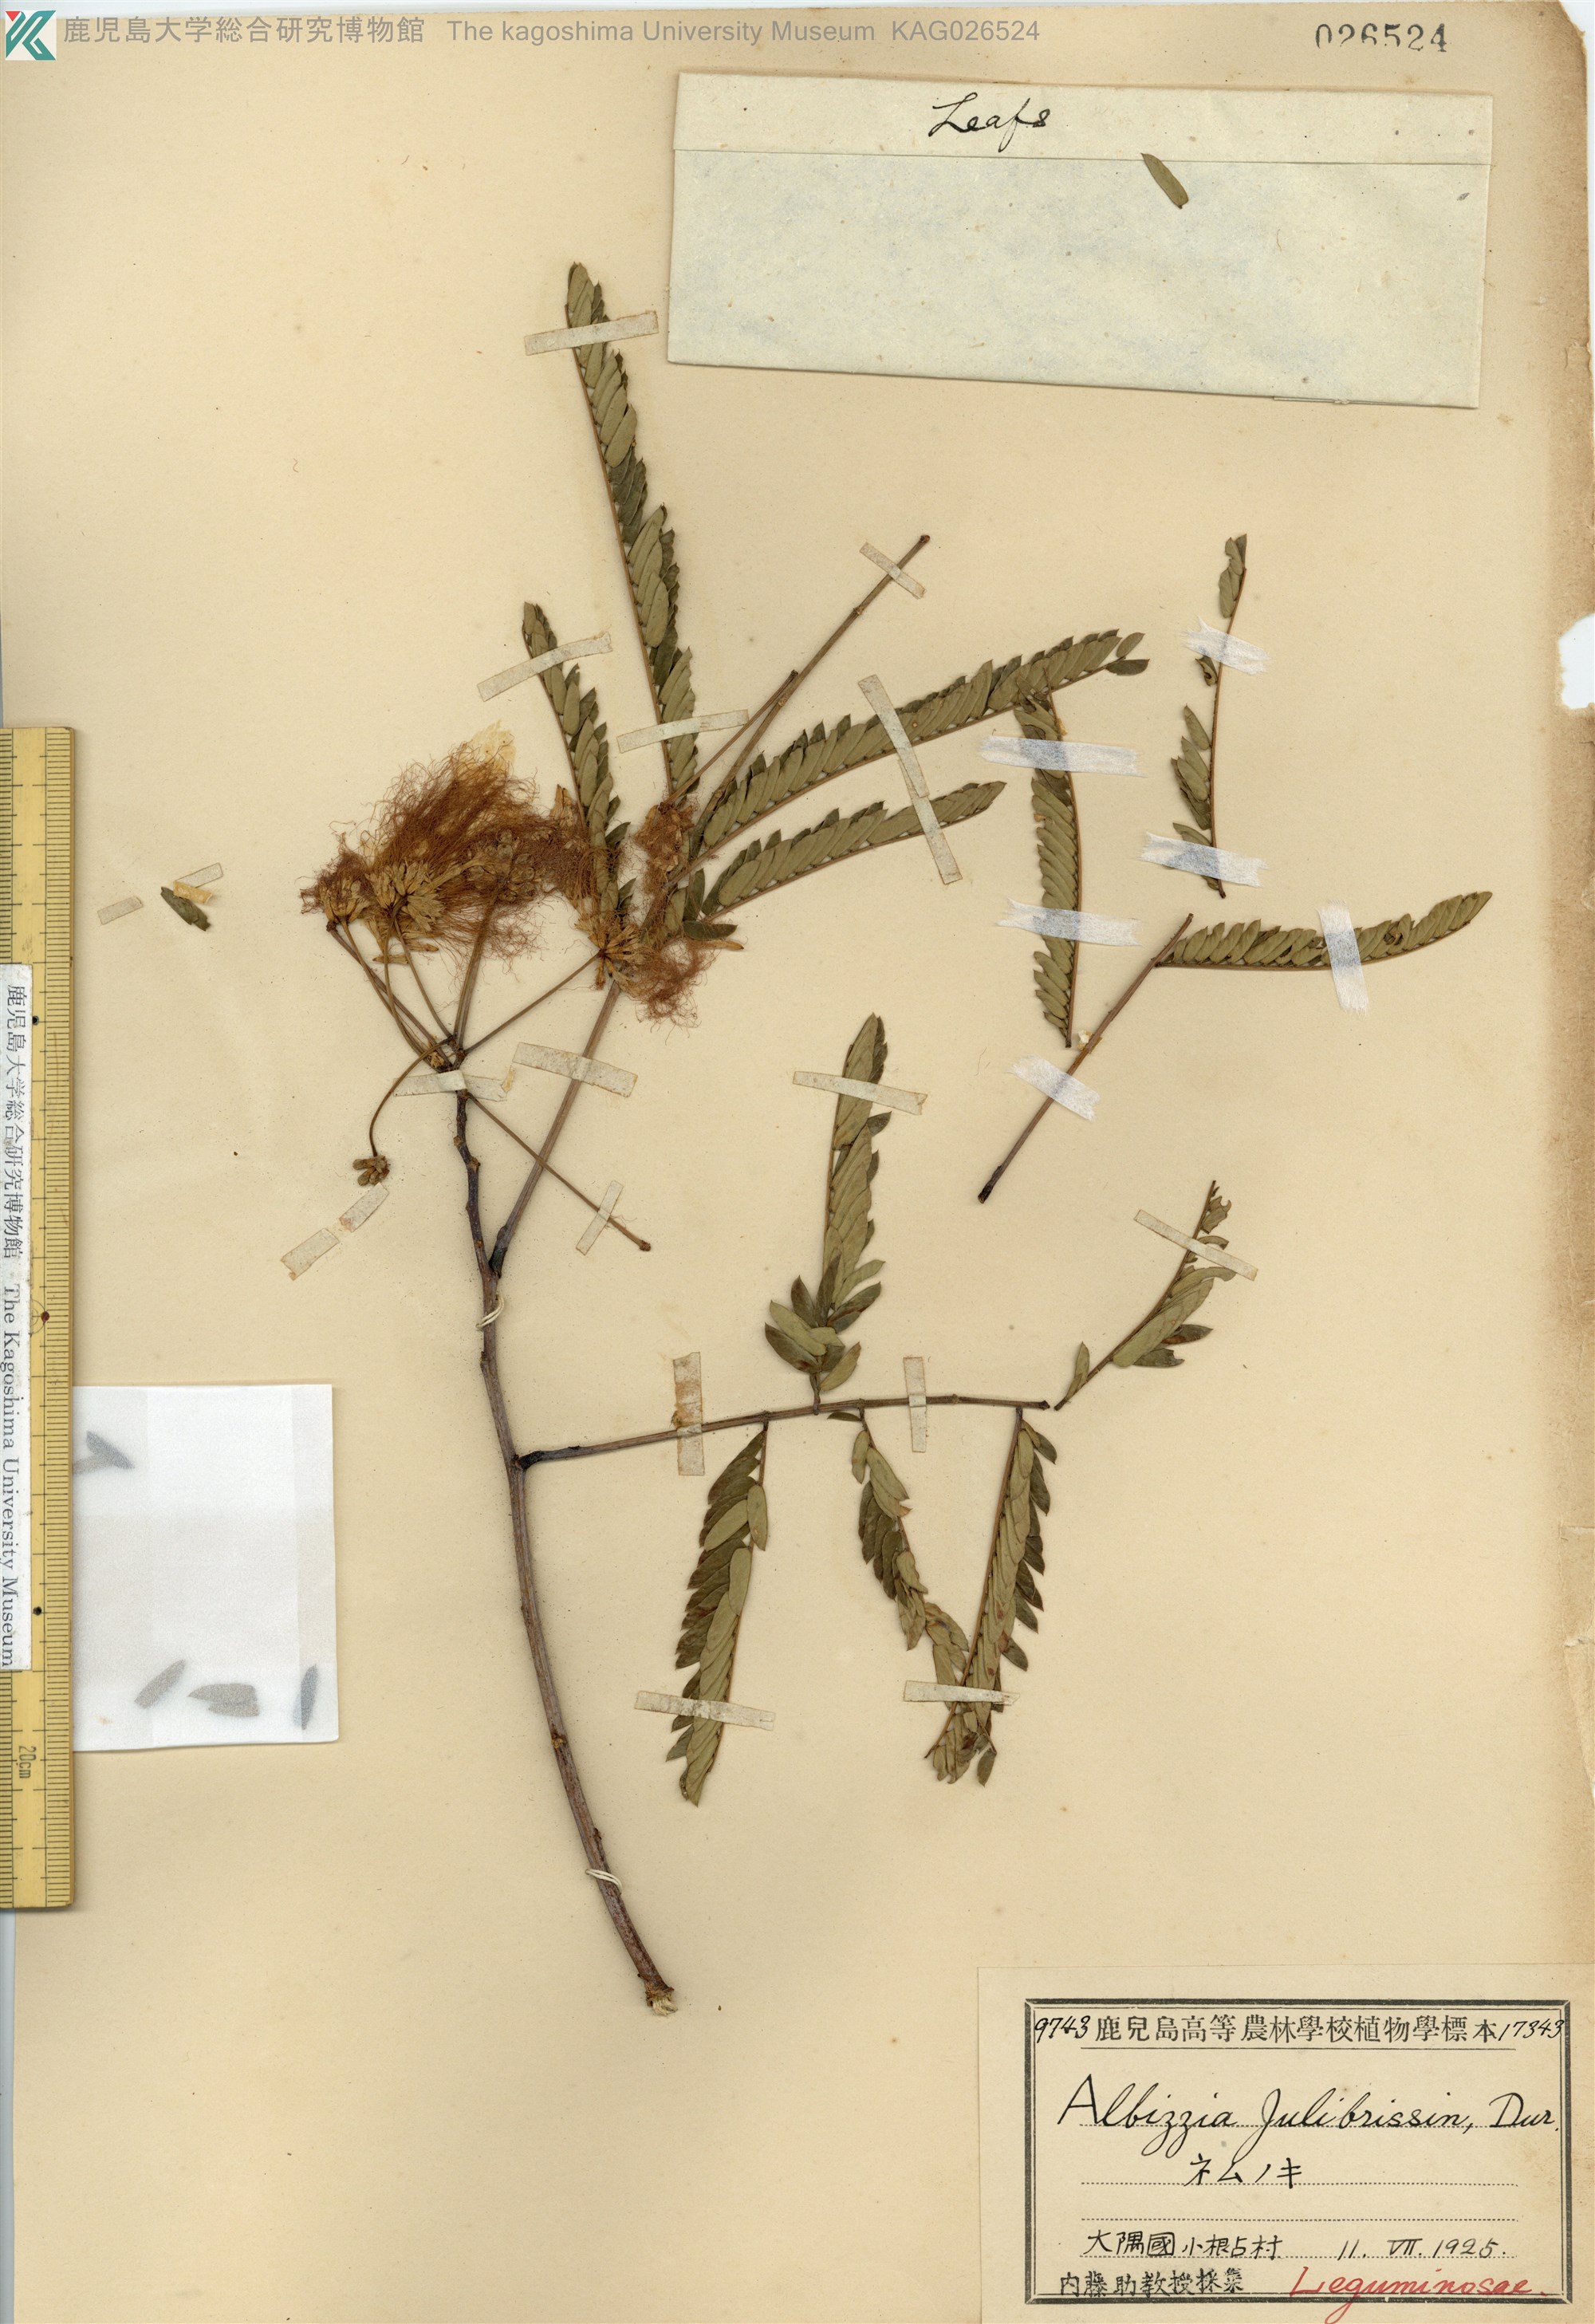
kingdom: Plantae
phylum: Tracheophyta
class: Magnoliopsida
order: Fabales
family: Fabaceae
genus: Albizia
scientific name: Albizia julibrissin
